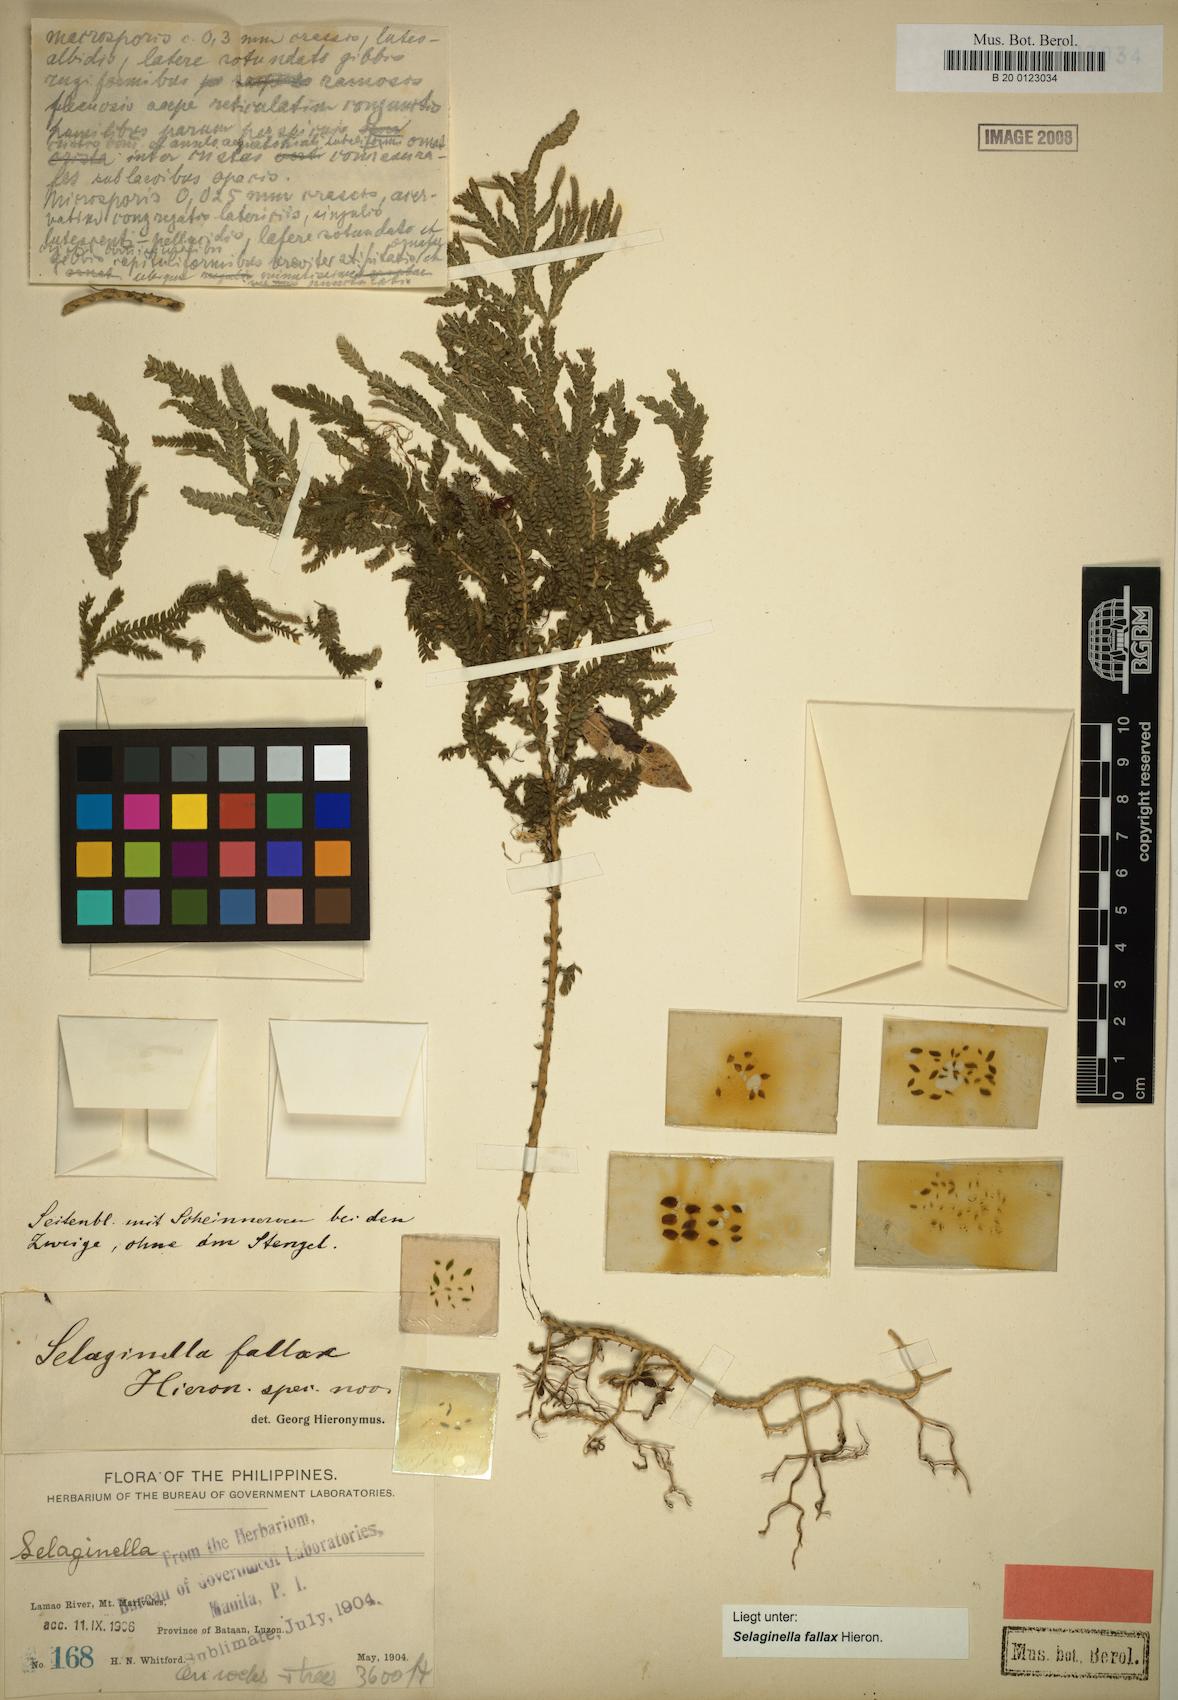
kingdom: Plantae
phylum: Tracheophyta
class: Lycopodiopsida
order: Selaginellales
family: Selaginellaceae
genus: Selaginella
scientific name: Selaginella jagorii
